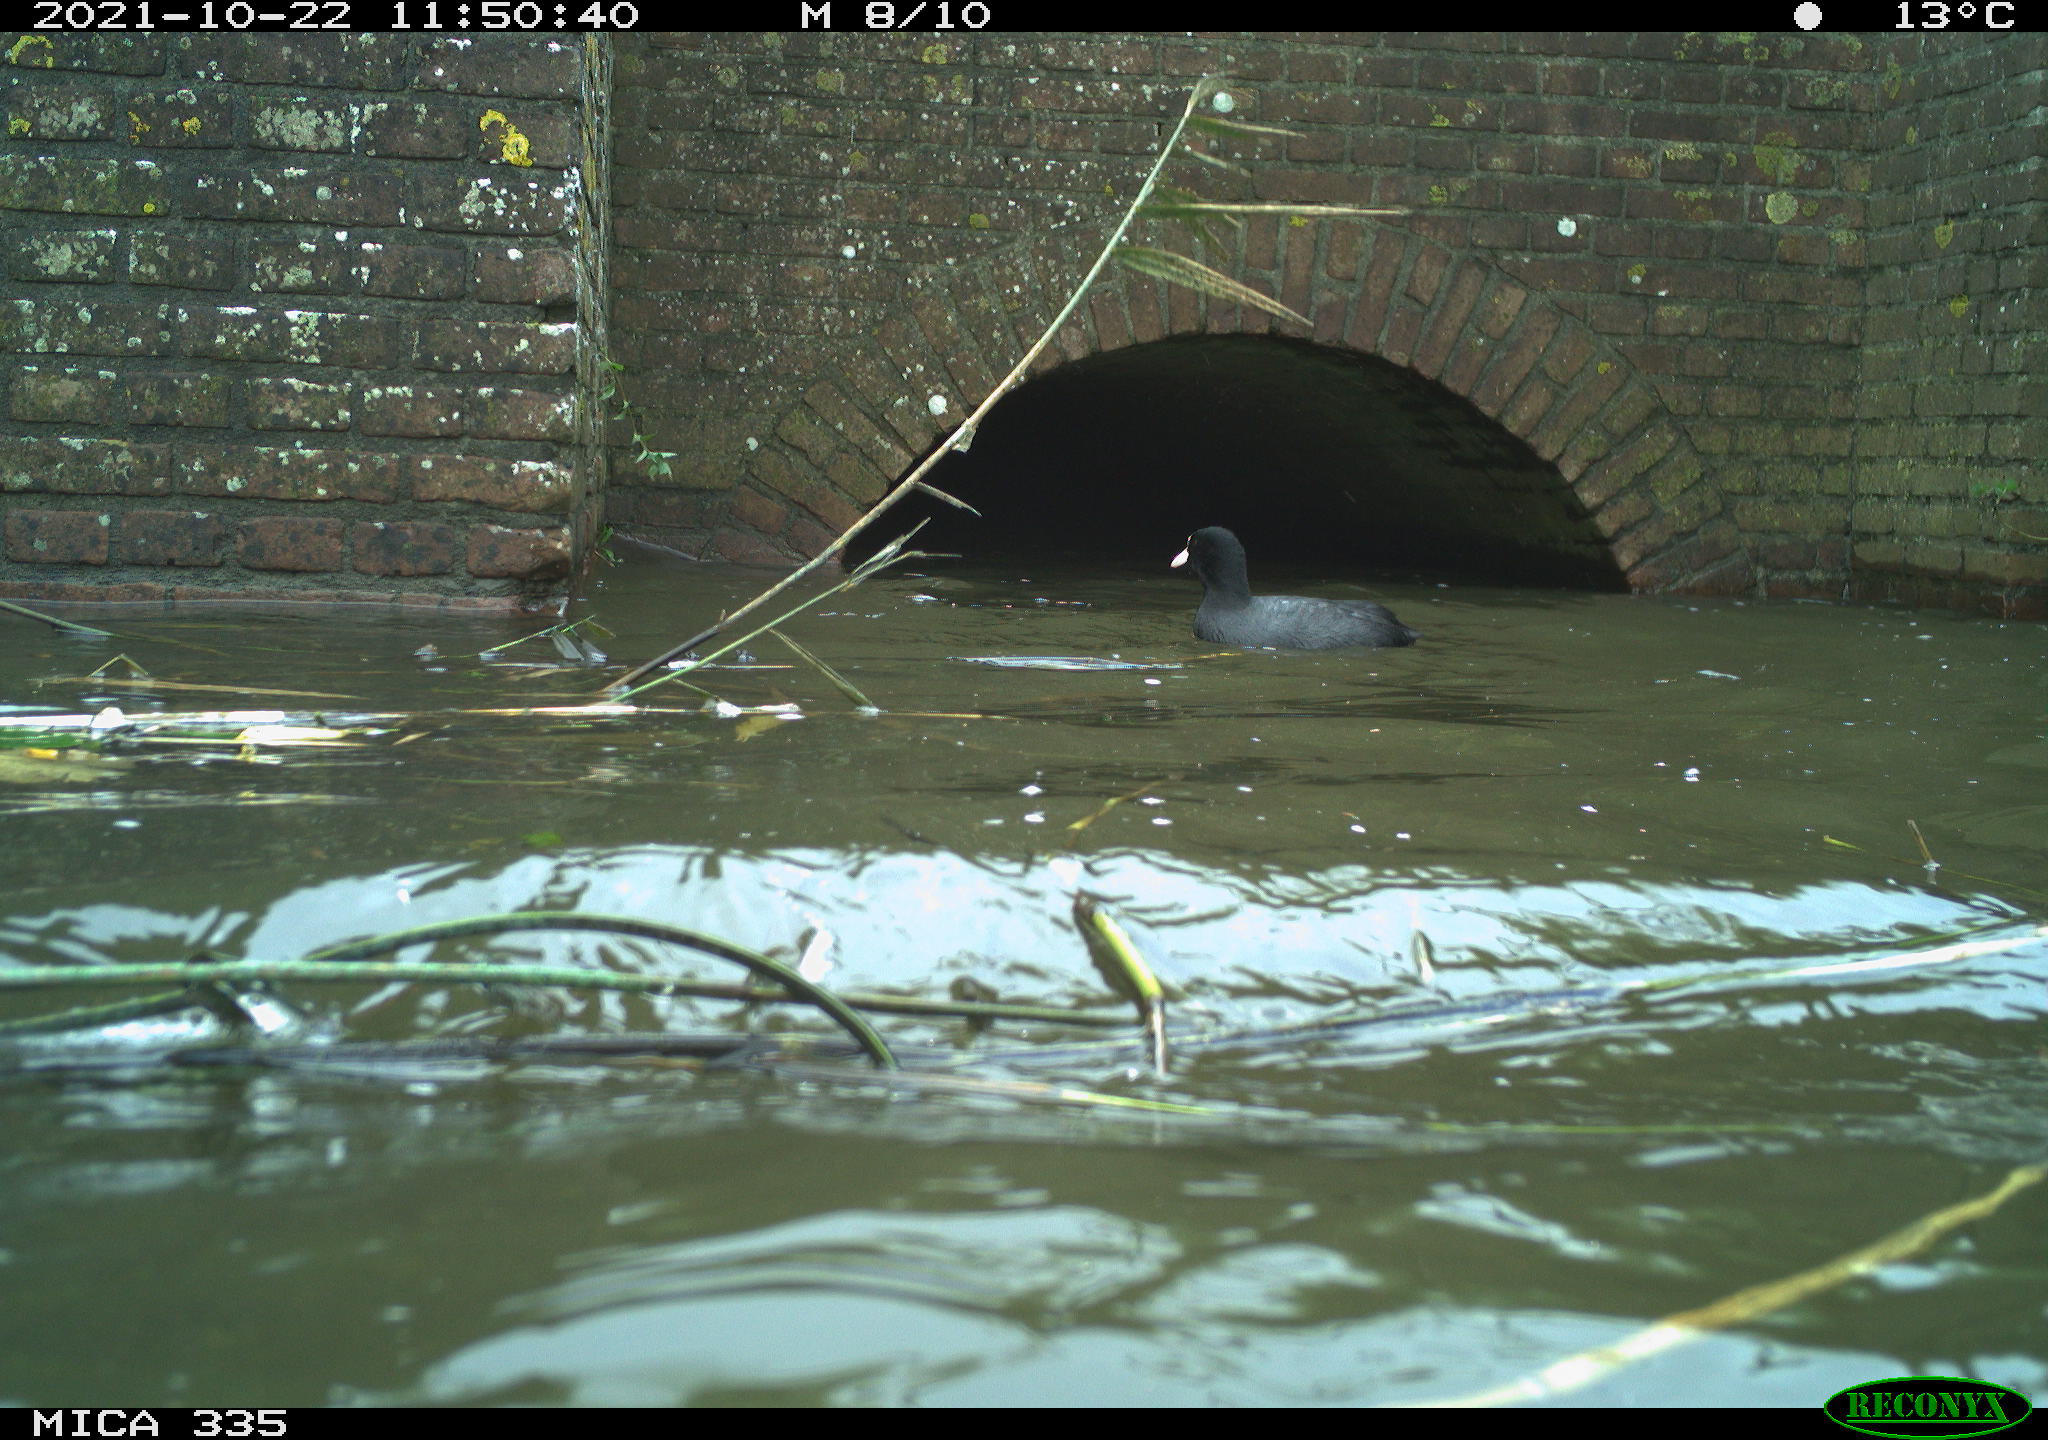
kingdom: Animalia
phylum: Chordata
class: Aves
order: Gruiformes
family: Rallidae
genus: Fulica
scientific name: Fulica atra
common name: Eurasian coot
